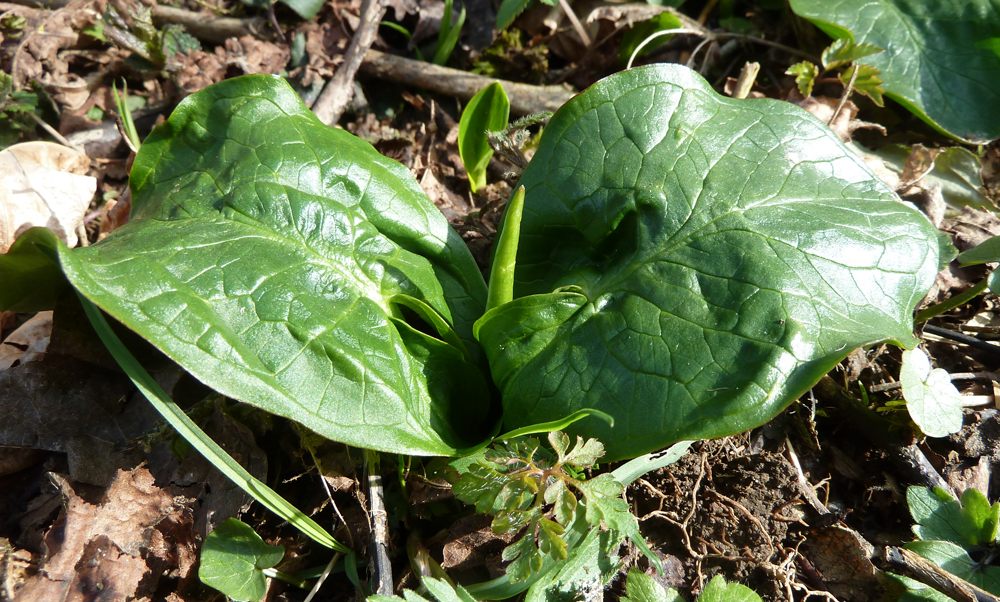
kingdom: Plantae
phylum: Tracheophyta
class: Liliopsida
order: Alismatales
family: Araceae
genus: Arum
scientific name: Arum maculatum
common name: Lords-and-ladies
